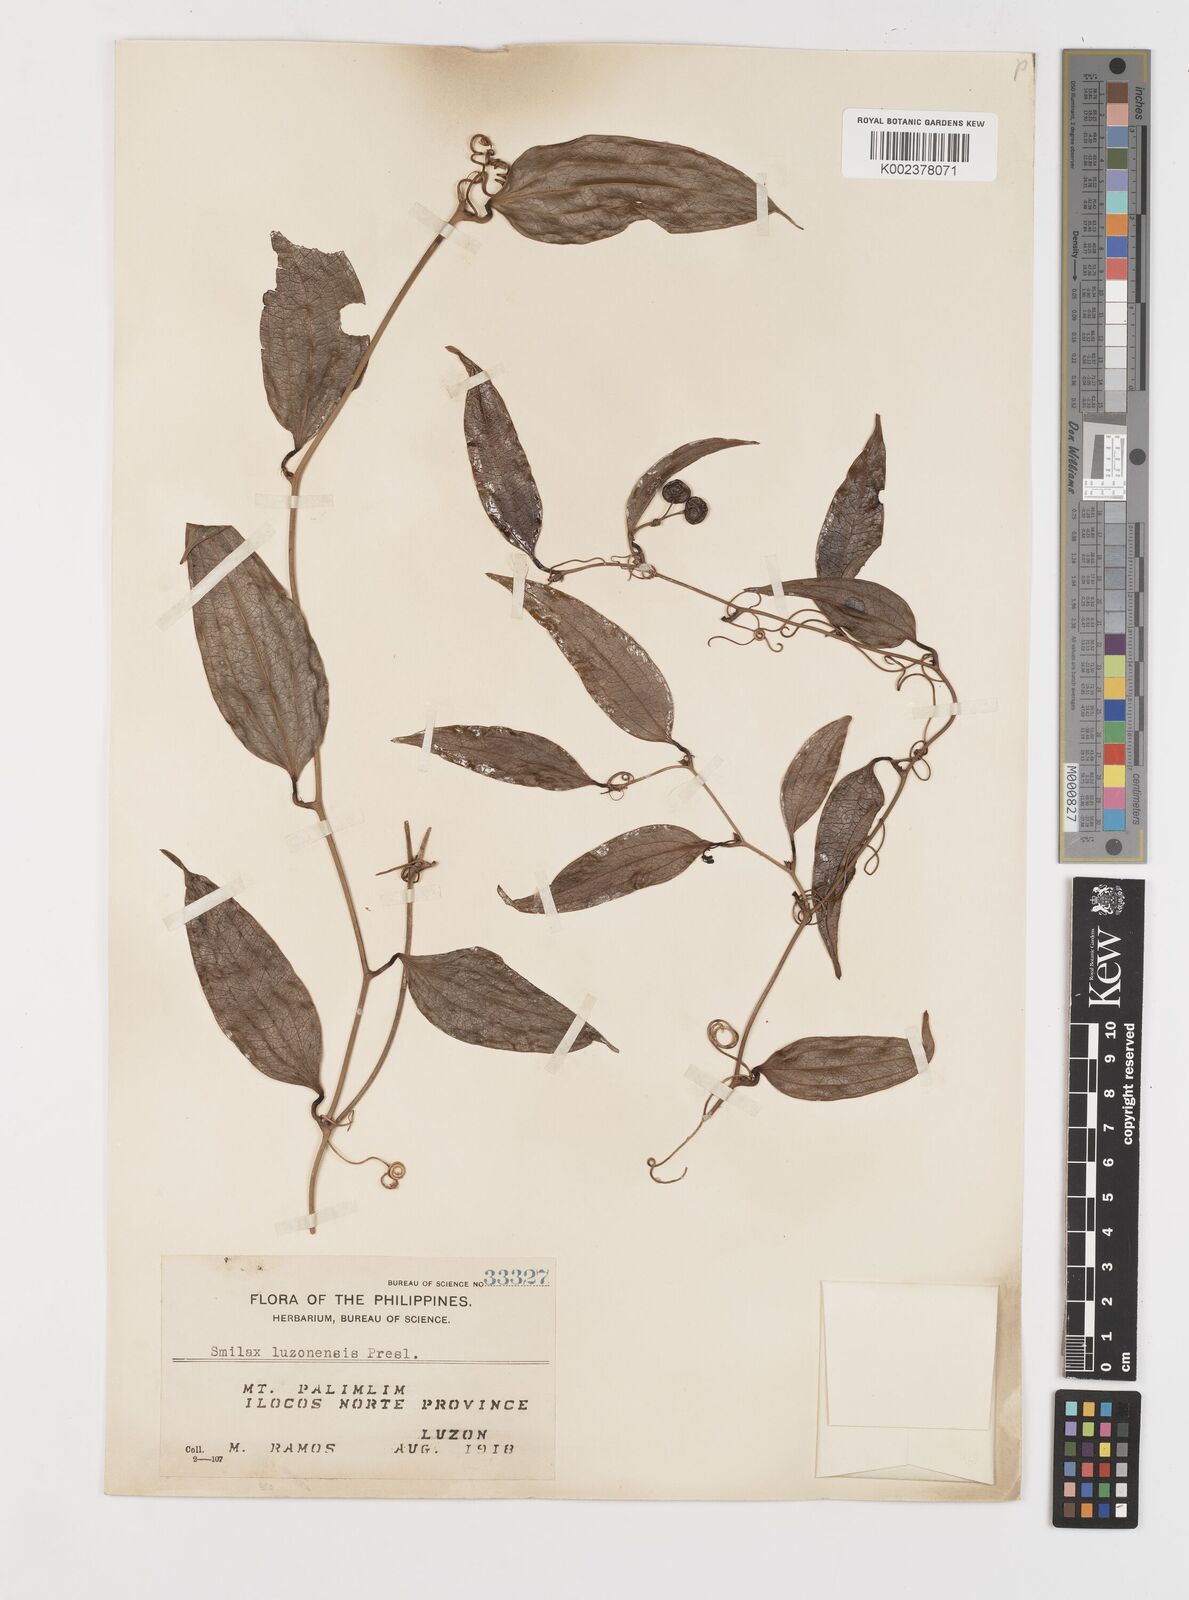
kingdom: Plantae
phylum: Tracheophyta
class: Liliopsida
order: Liliales
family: Smilacaceae
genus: Smilax
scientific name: Smilax luzonensis
